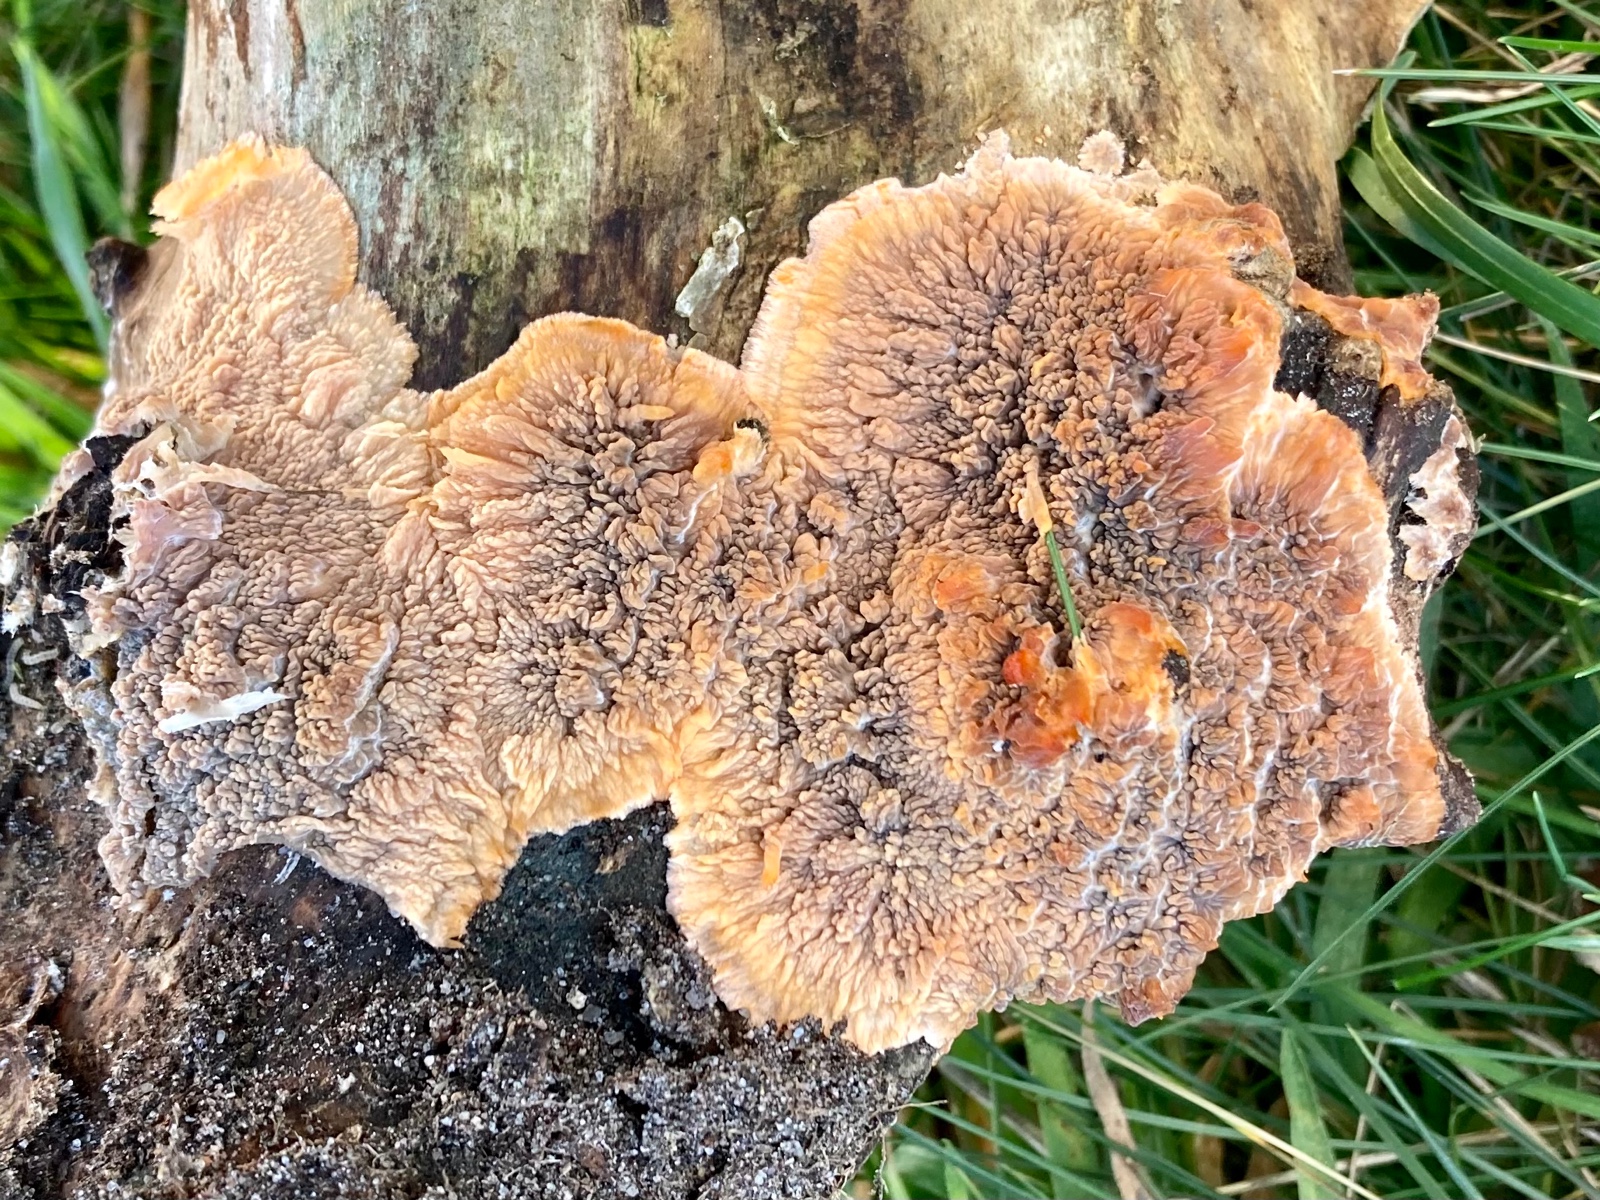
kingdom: Fungi
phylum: Basidiomycota
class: Agaricomycetes
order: Polyporales
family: Meruliaceae
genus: Phlebia
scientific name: Phlebia radiata
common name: stråle-åresvamp
